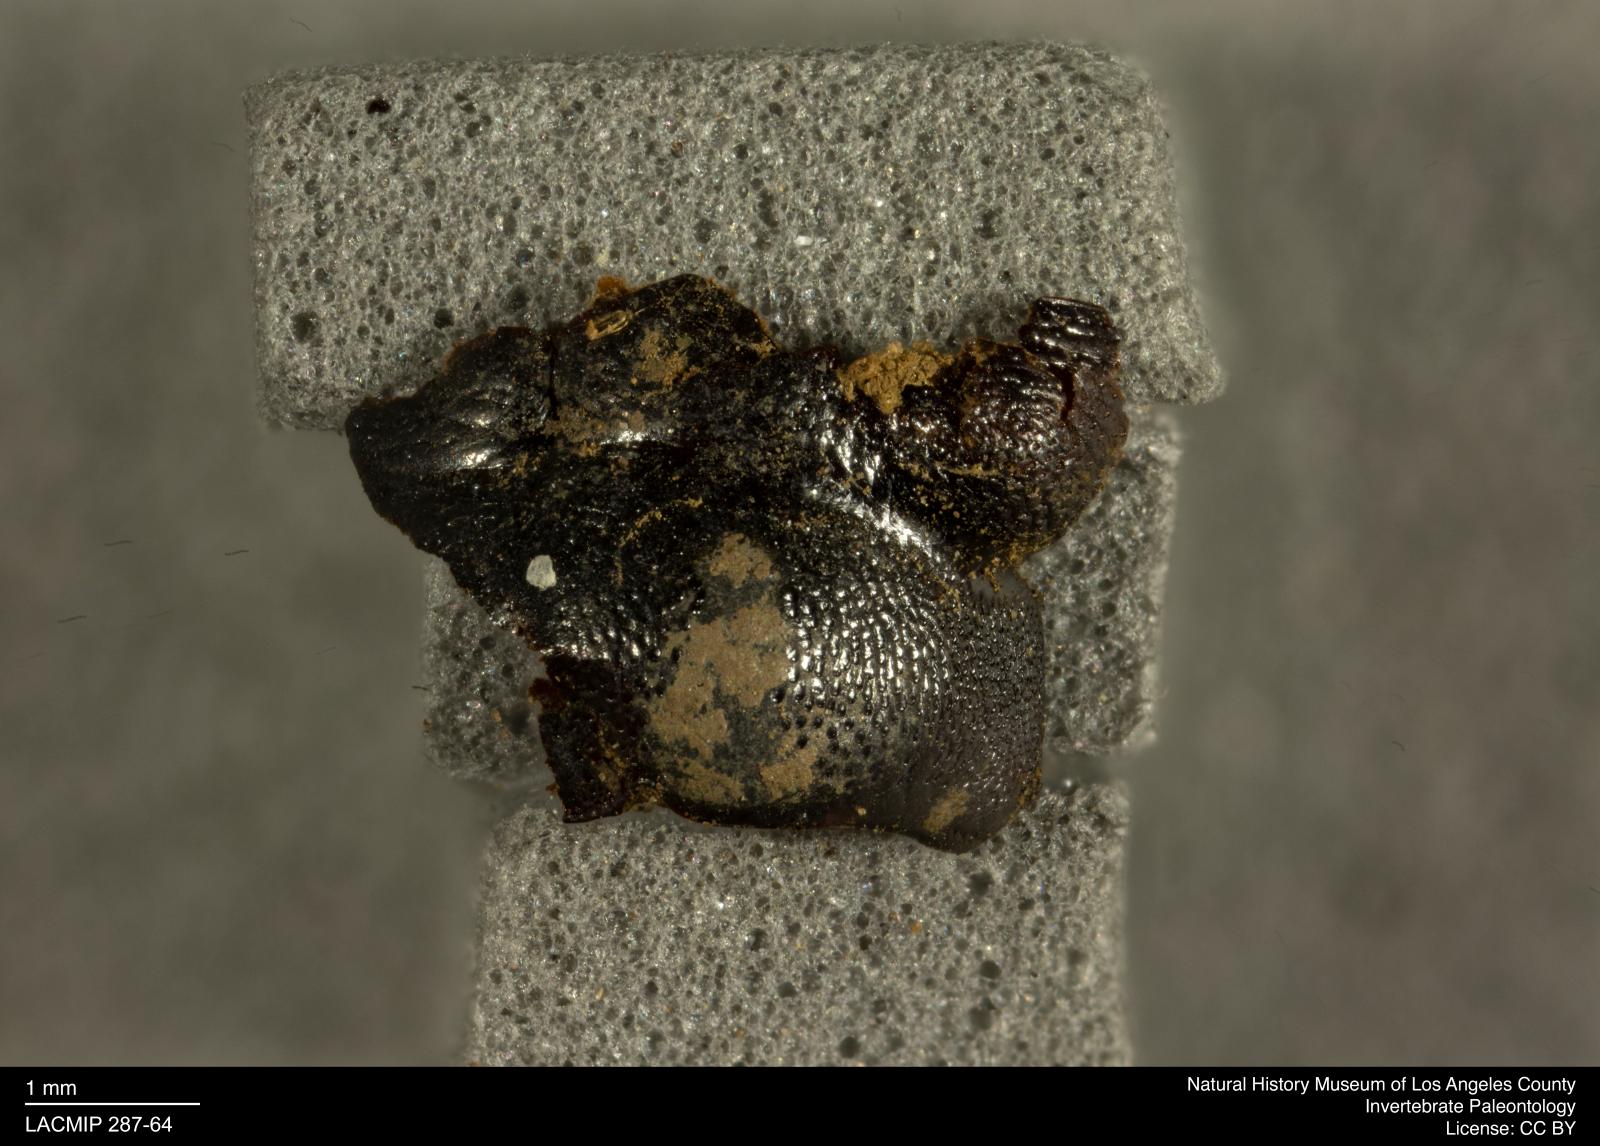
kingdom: Animalia
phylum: Arthropoda
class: Insecta
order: Coleoptera
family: Staphylinidae
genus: Nicrophorus
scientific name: Nicrophorus marginatus
